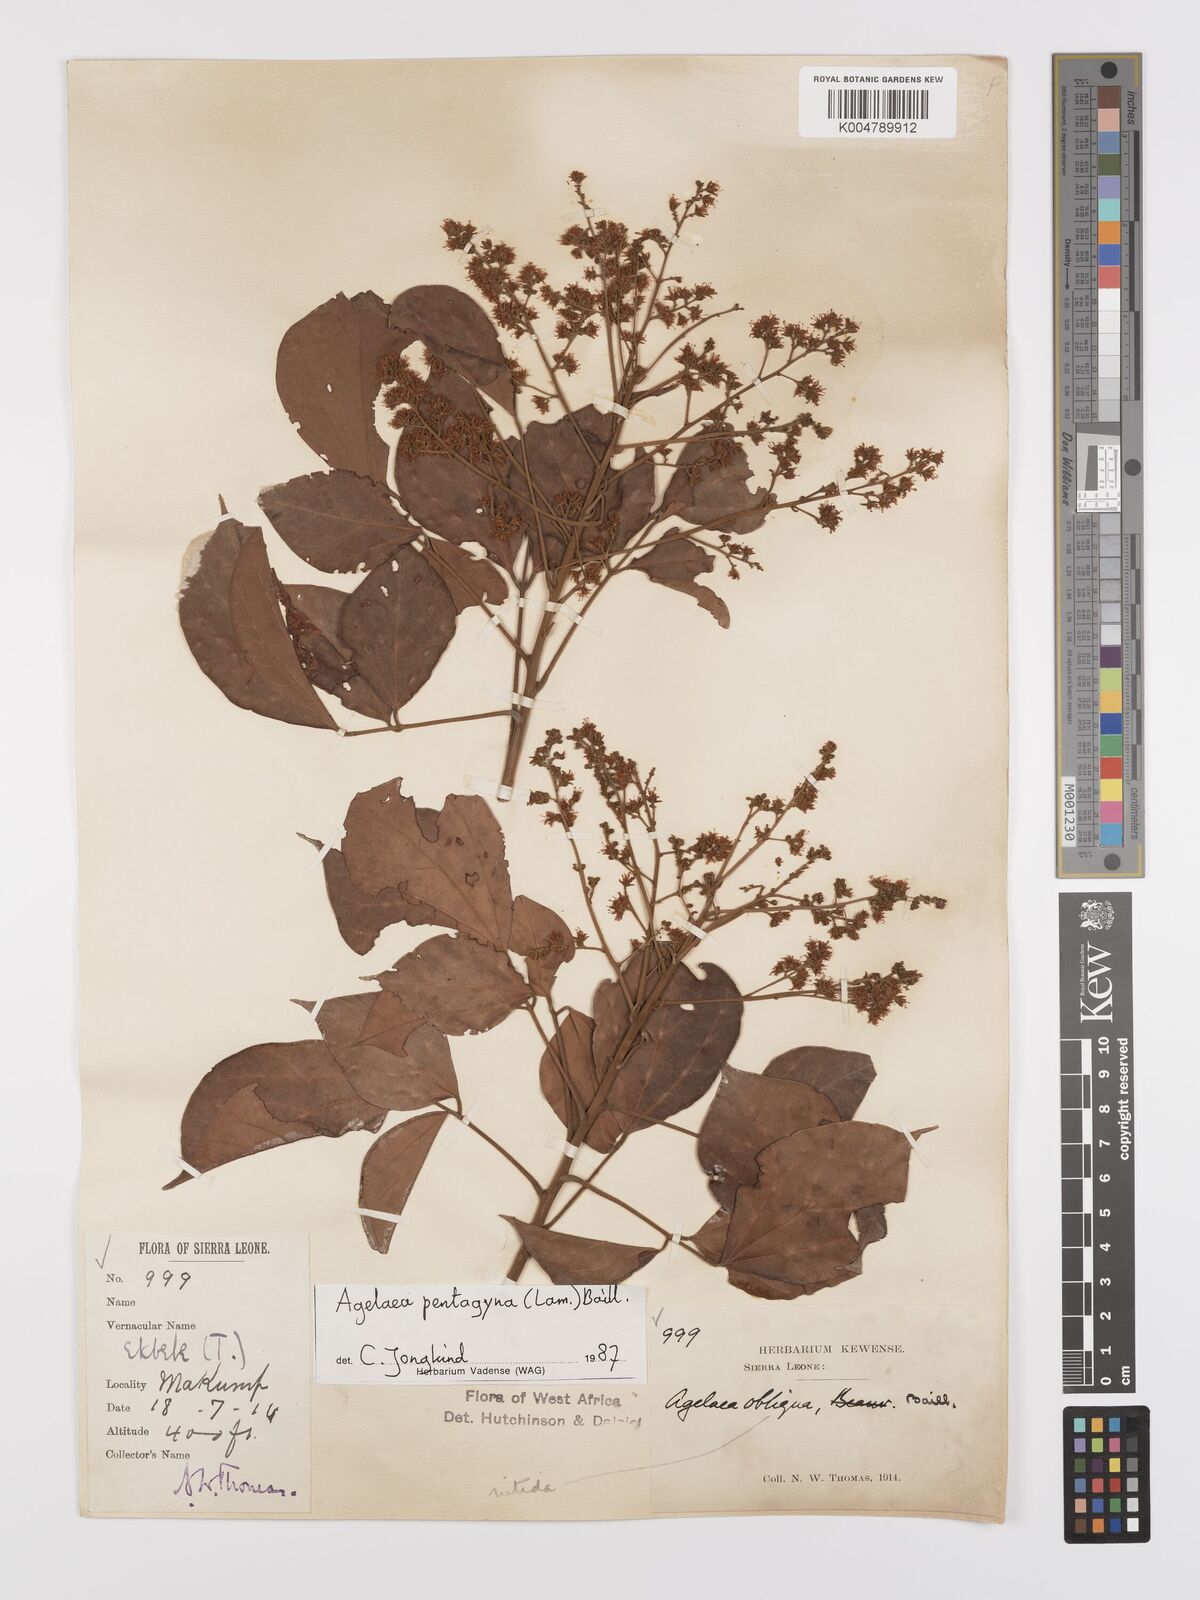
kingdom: Plantae
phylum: Tracheophyta
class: Magnoliopsida
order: Oxalidales
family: Connaraceae
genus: Agelaea
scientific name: Agelaea pentagyna
